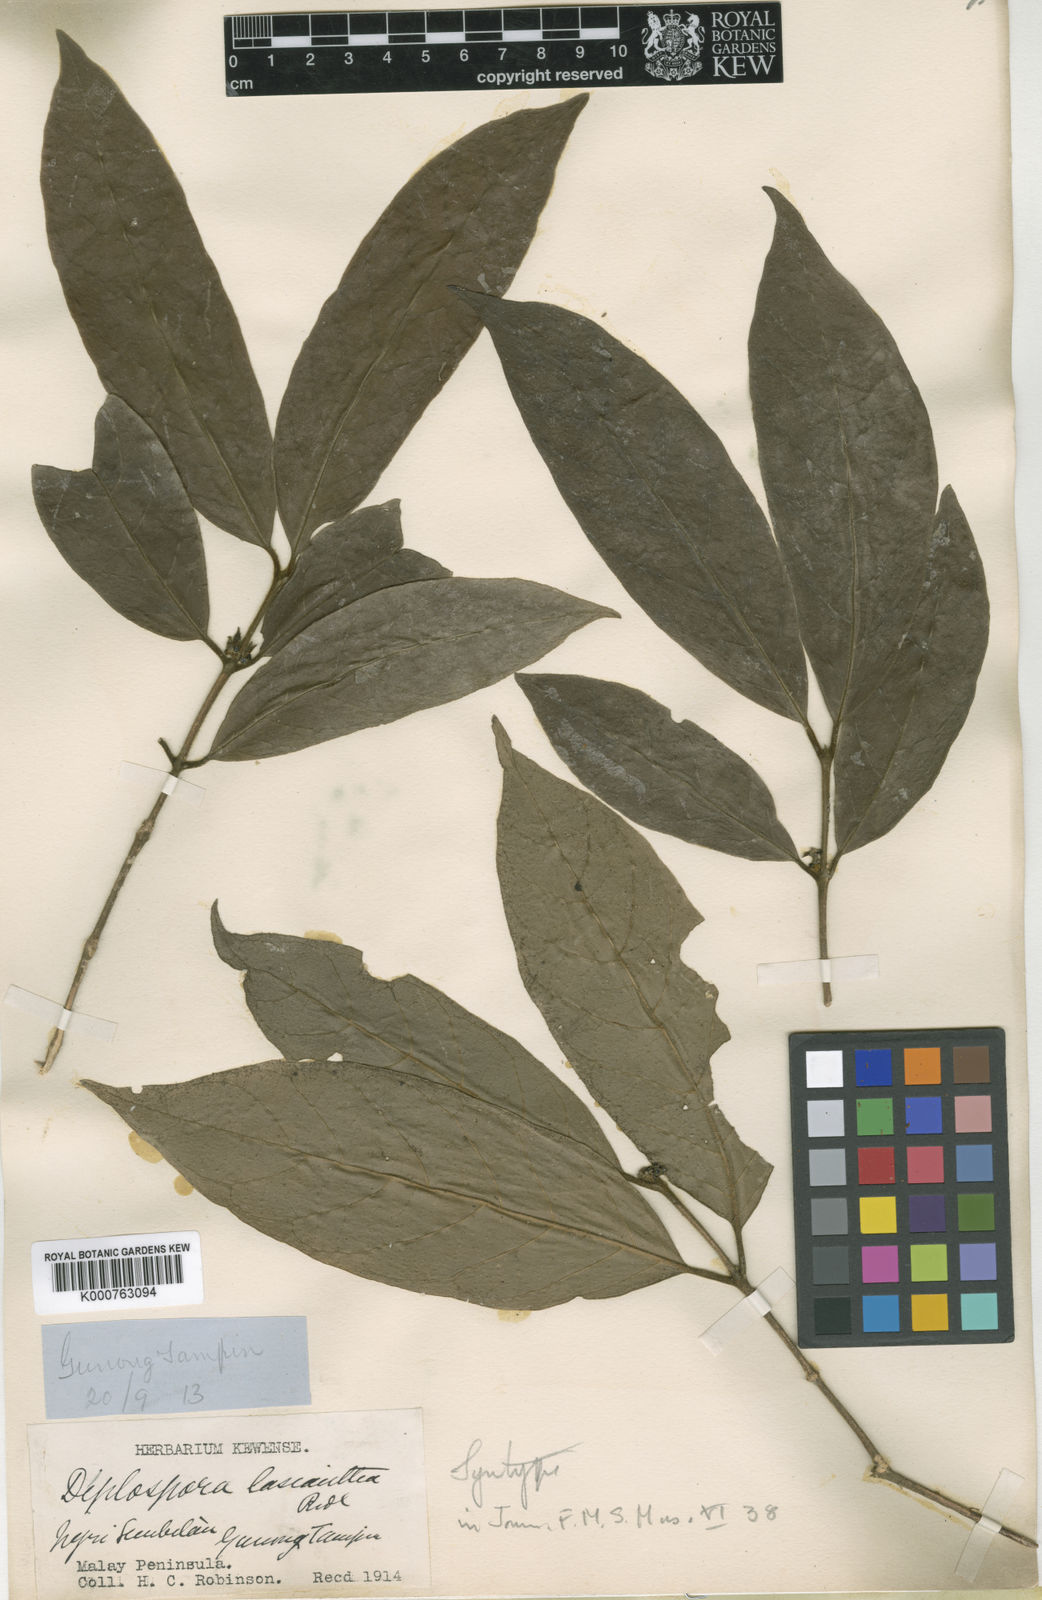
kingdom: Plantae
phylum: Tracheophyta
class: Magnoliopsida
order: Gentianales
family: Rubiaceae
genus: Diplospora
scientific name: Diplospora lasiantha
